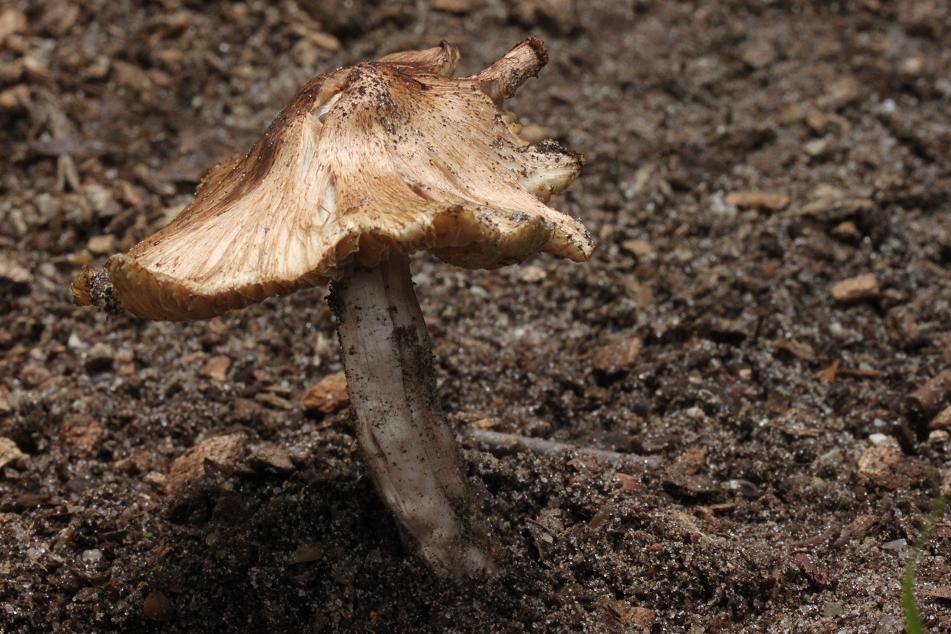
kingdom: Fungi
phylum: Basidiomycota
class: Agaricomycetes
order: Agaricales
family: Inocybaceae
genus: Inosperma
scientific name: Inosperma adaequatum
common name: vinrød trævlhat
